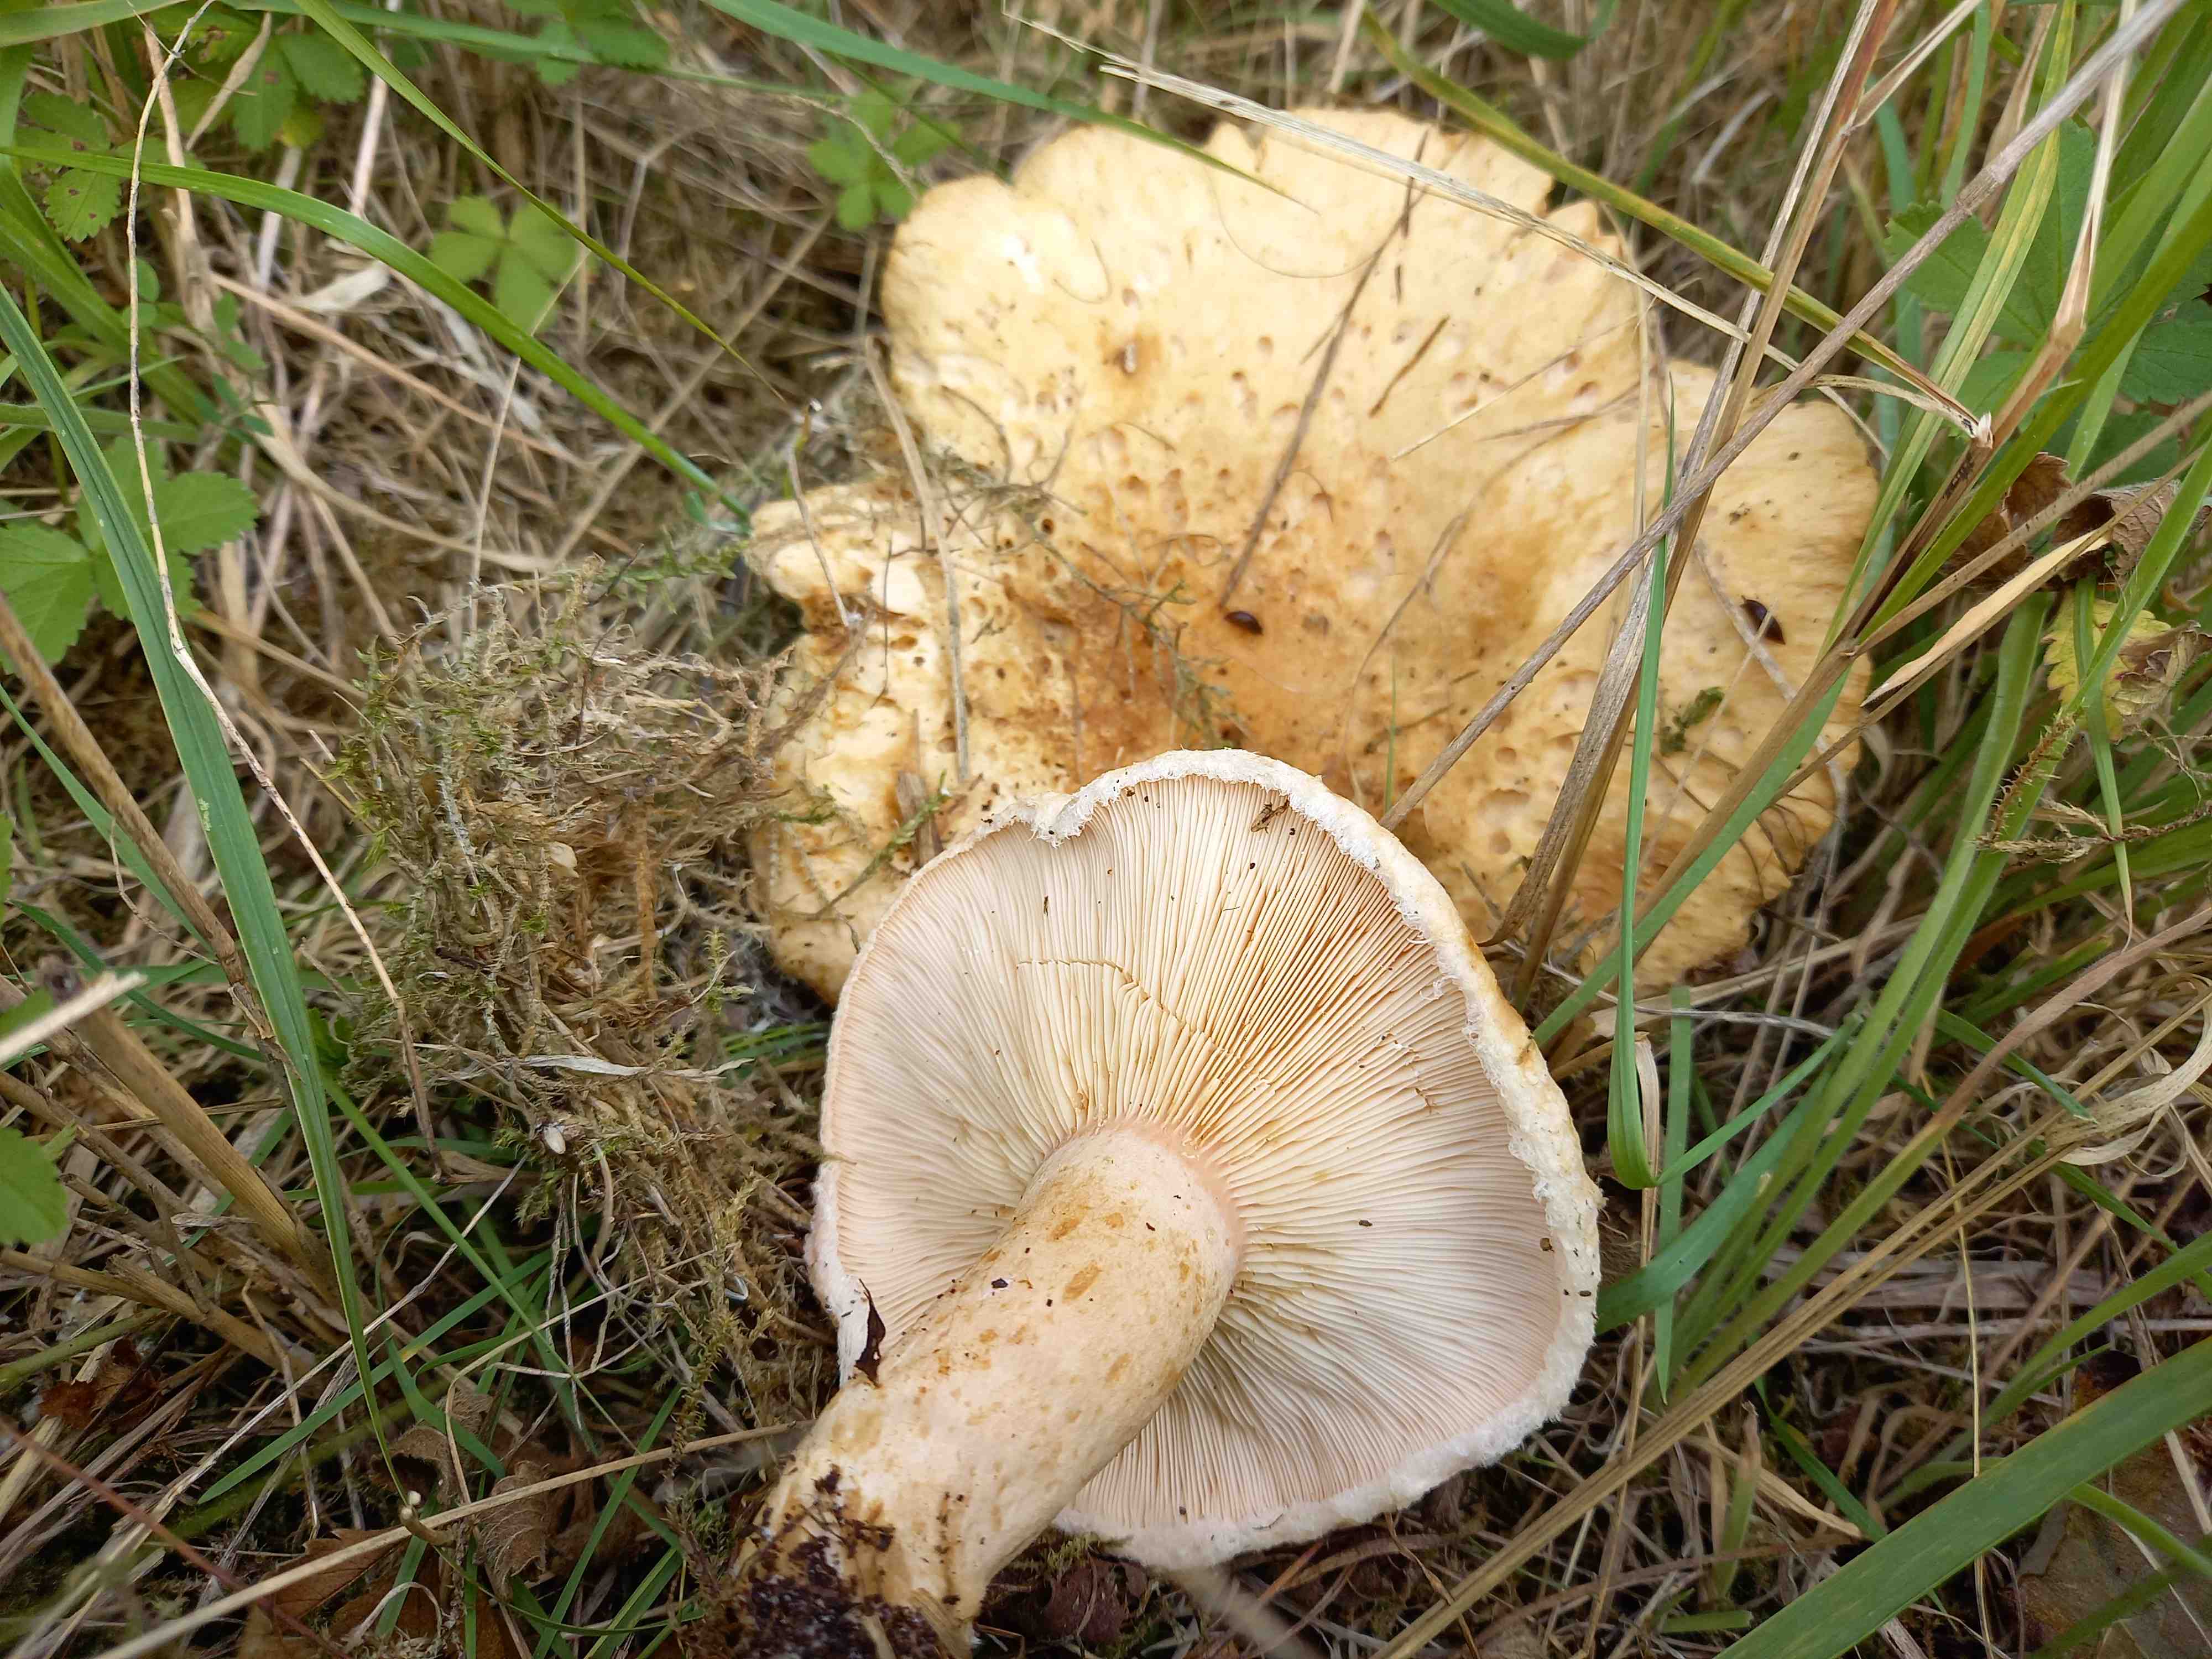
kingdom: Fungi
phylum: Basidiomycota
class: Agaricomycetes
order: Russulales
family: Russulaceae
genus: Lactarius
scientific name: Lactarius pubescens
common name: dunet mælkehat
